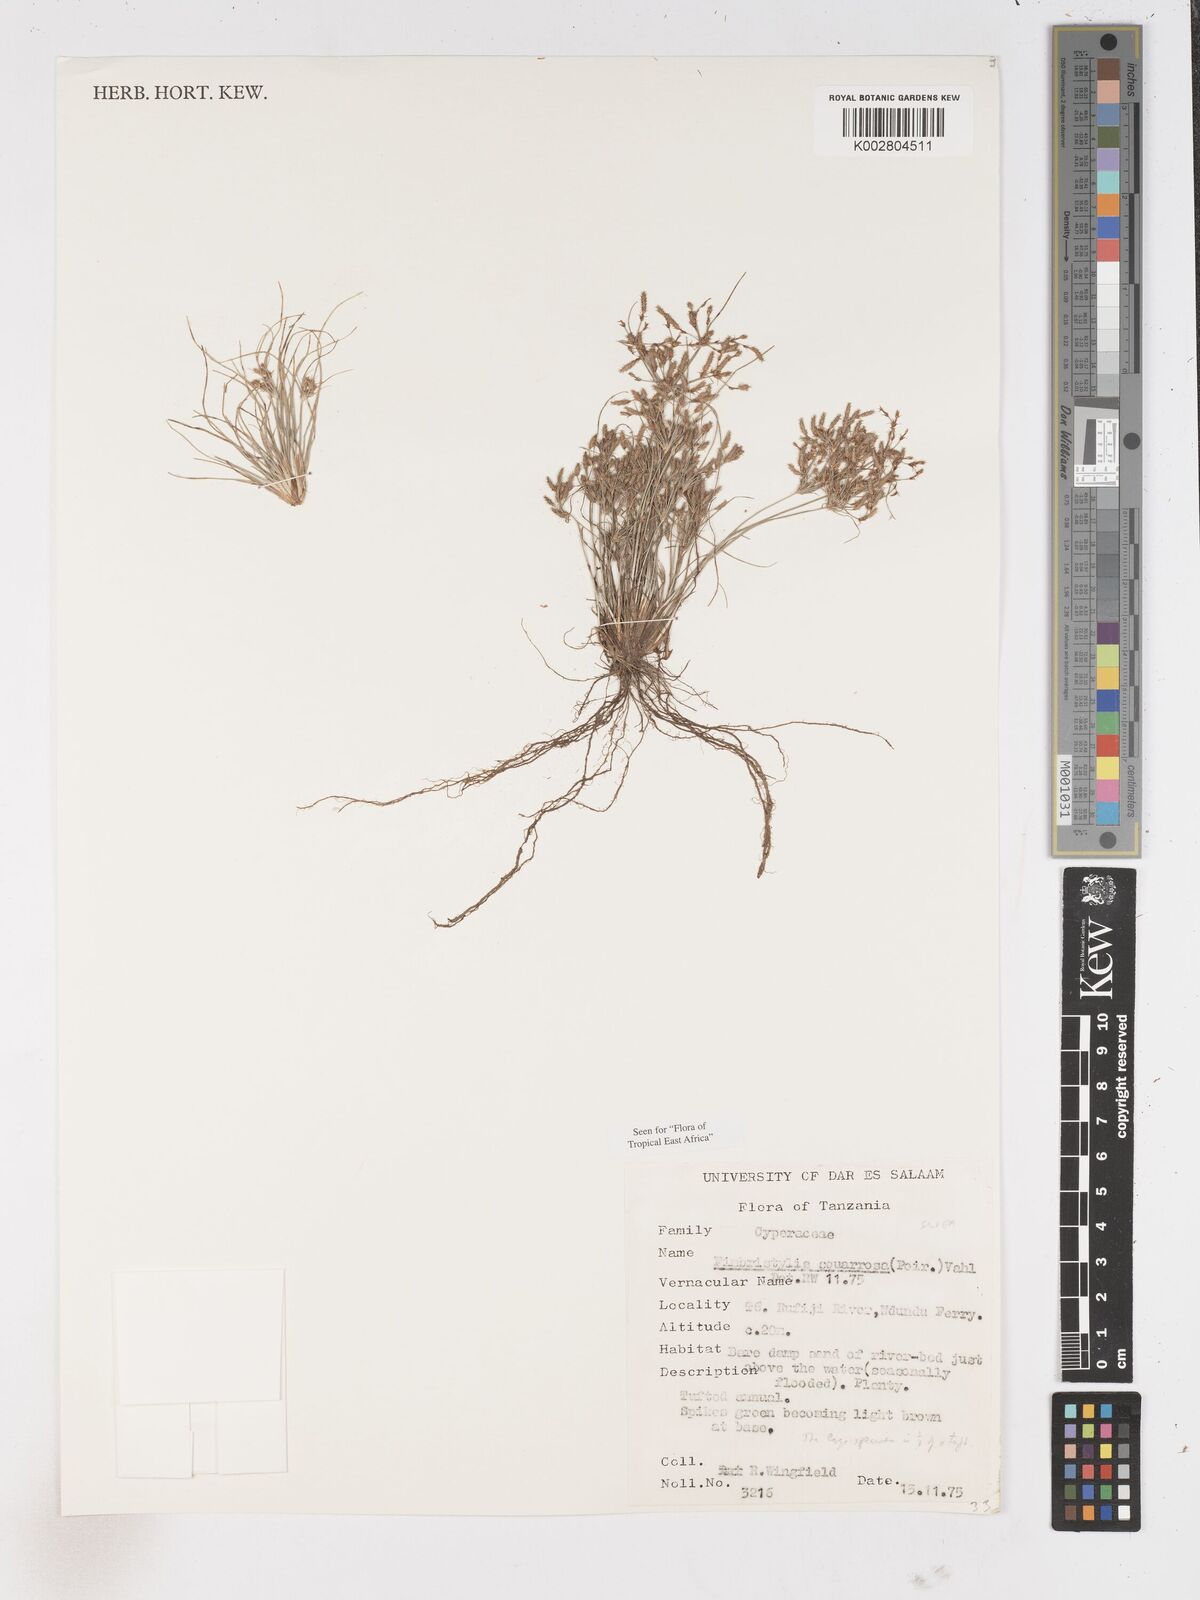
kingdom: Plantae
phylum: Tracheophyta
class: Liliopsida
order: Poales
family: Cyperaceae
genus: Fimbristylis
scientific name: Fimbristylis squarrosa
